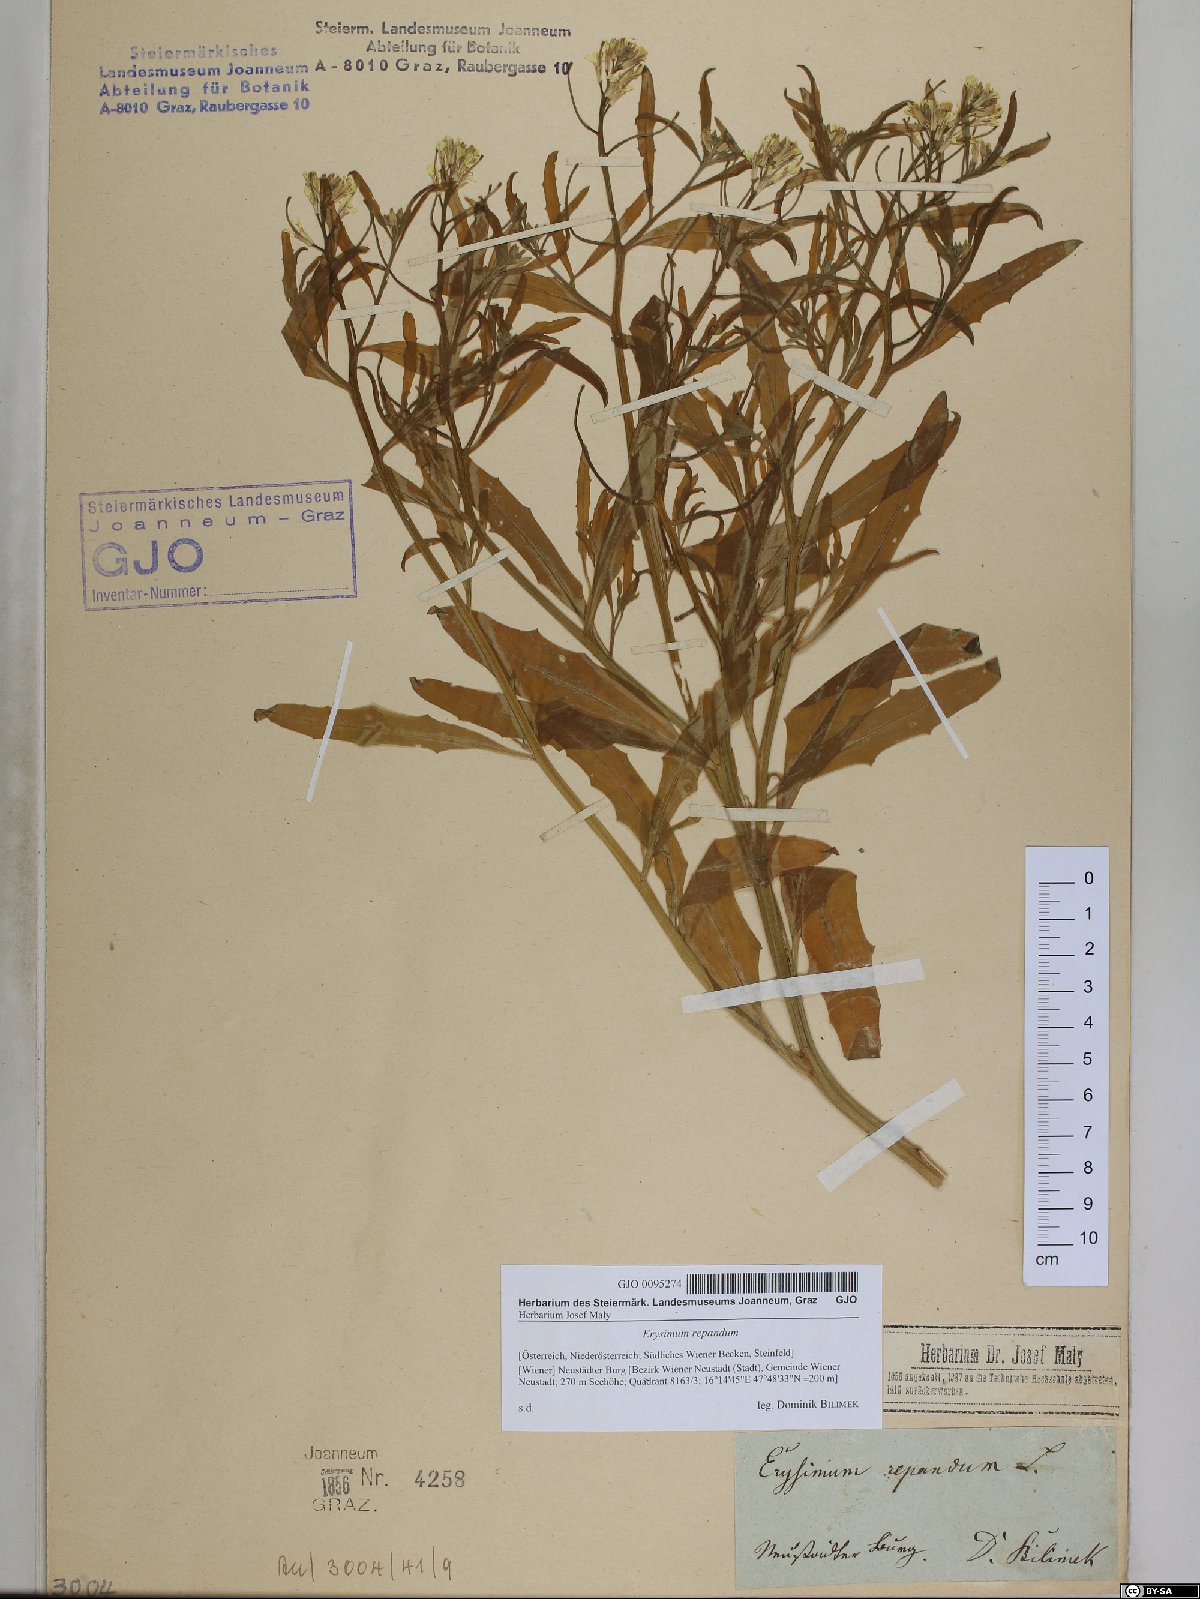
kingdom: Plantae
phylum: Tracheophyta
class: Magnoliopsida
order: Brassicales
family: Brassicaceae
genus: Erysimum
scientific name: Erysimum repandum
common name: Spreading wallflower
